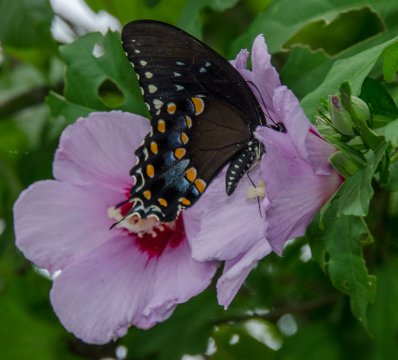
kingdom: Animalia
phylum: Arthropoda
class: Insecta
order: Lepidoptera
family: Papilionidae
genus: Pterourus
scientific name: Pterourus troilus
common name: Spicebush Swallowtail
